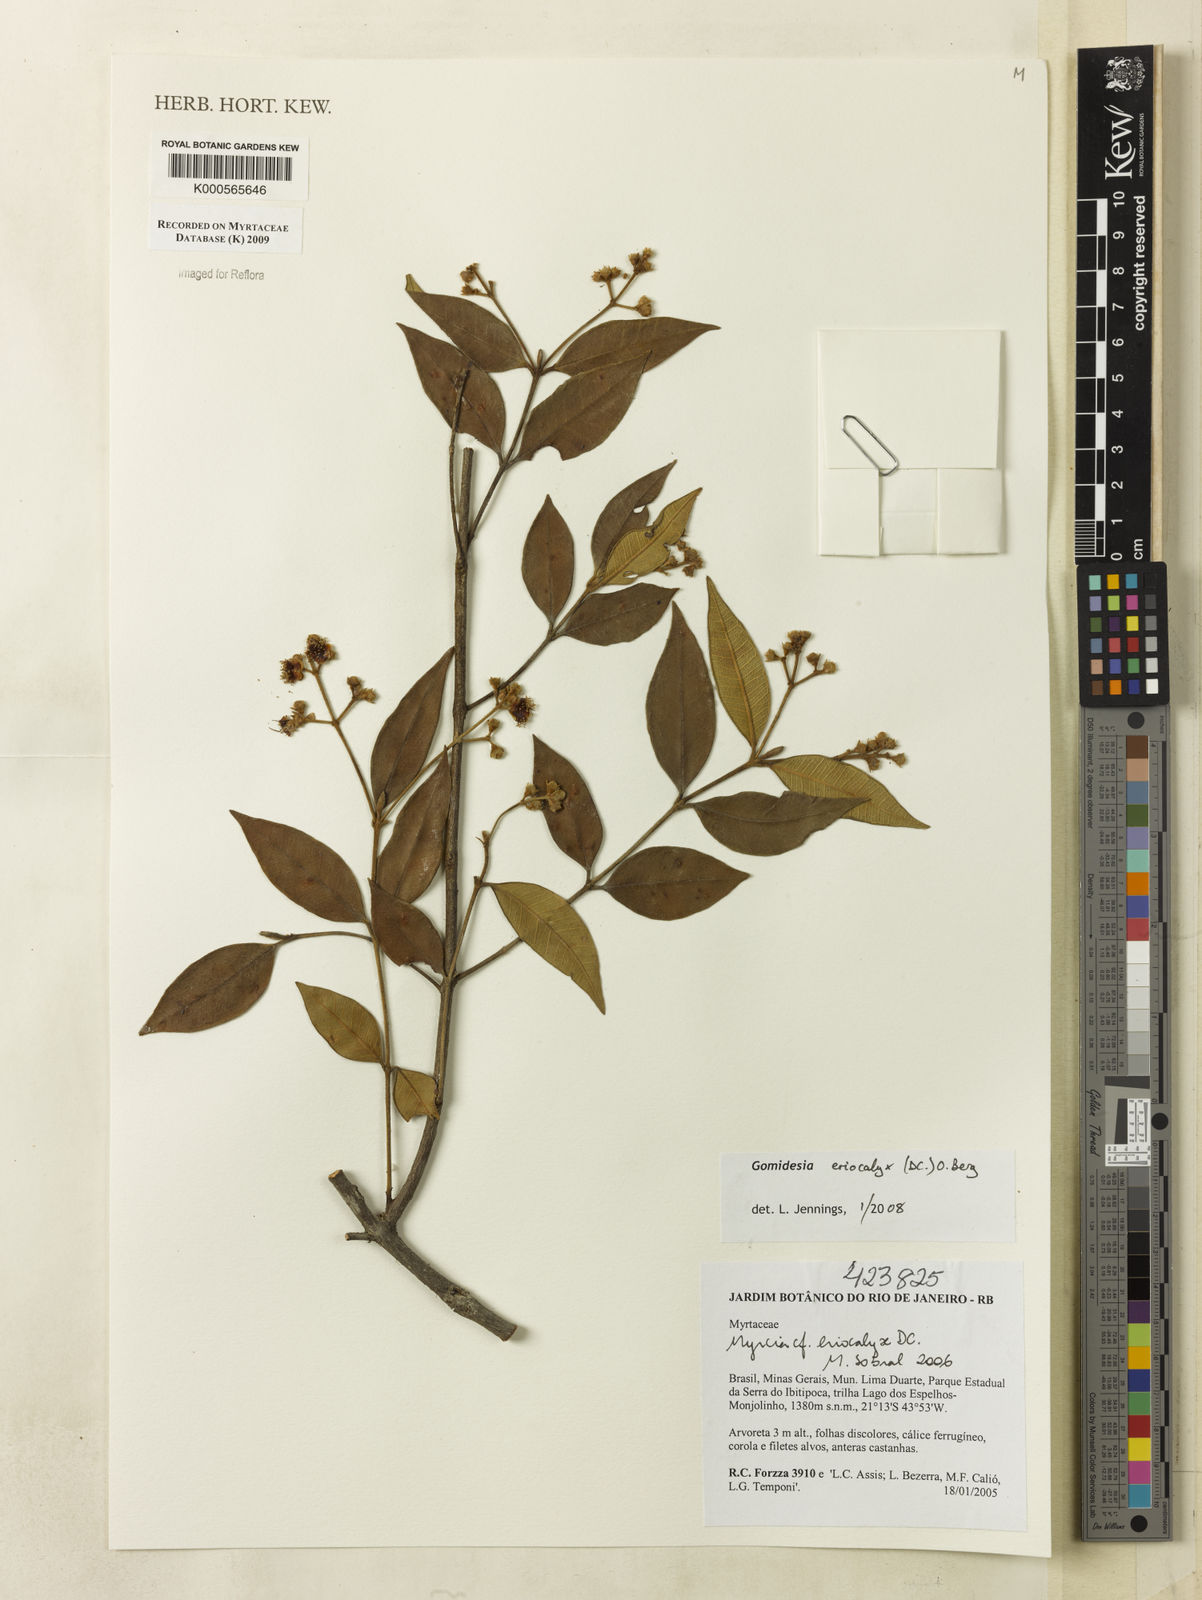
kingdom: Plantae
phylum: Tracheophyta
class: Magnoliopsida
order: Myrtales
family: Myrtaceae
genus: Myrcia
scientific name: Myrcia eriocalyx
